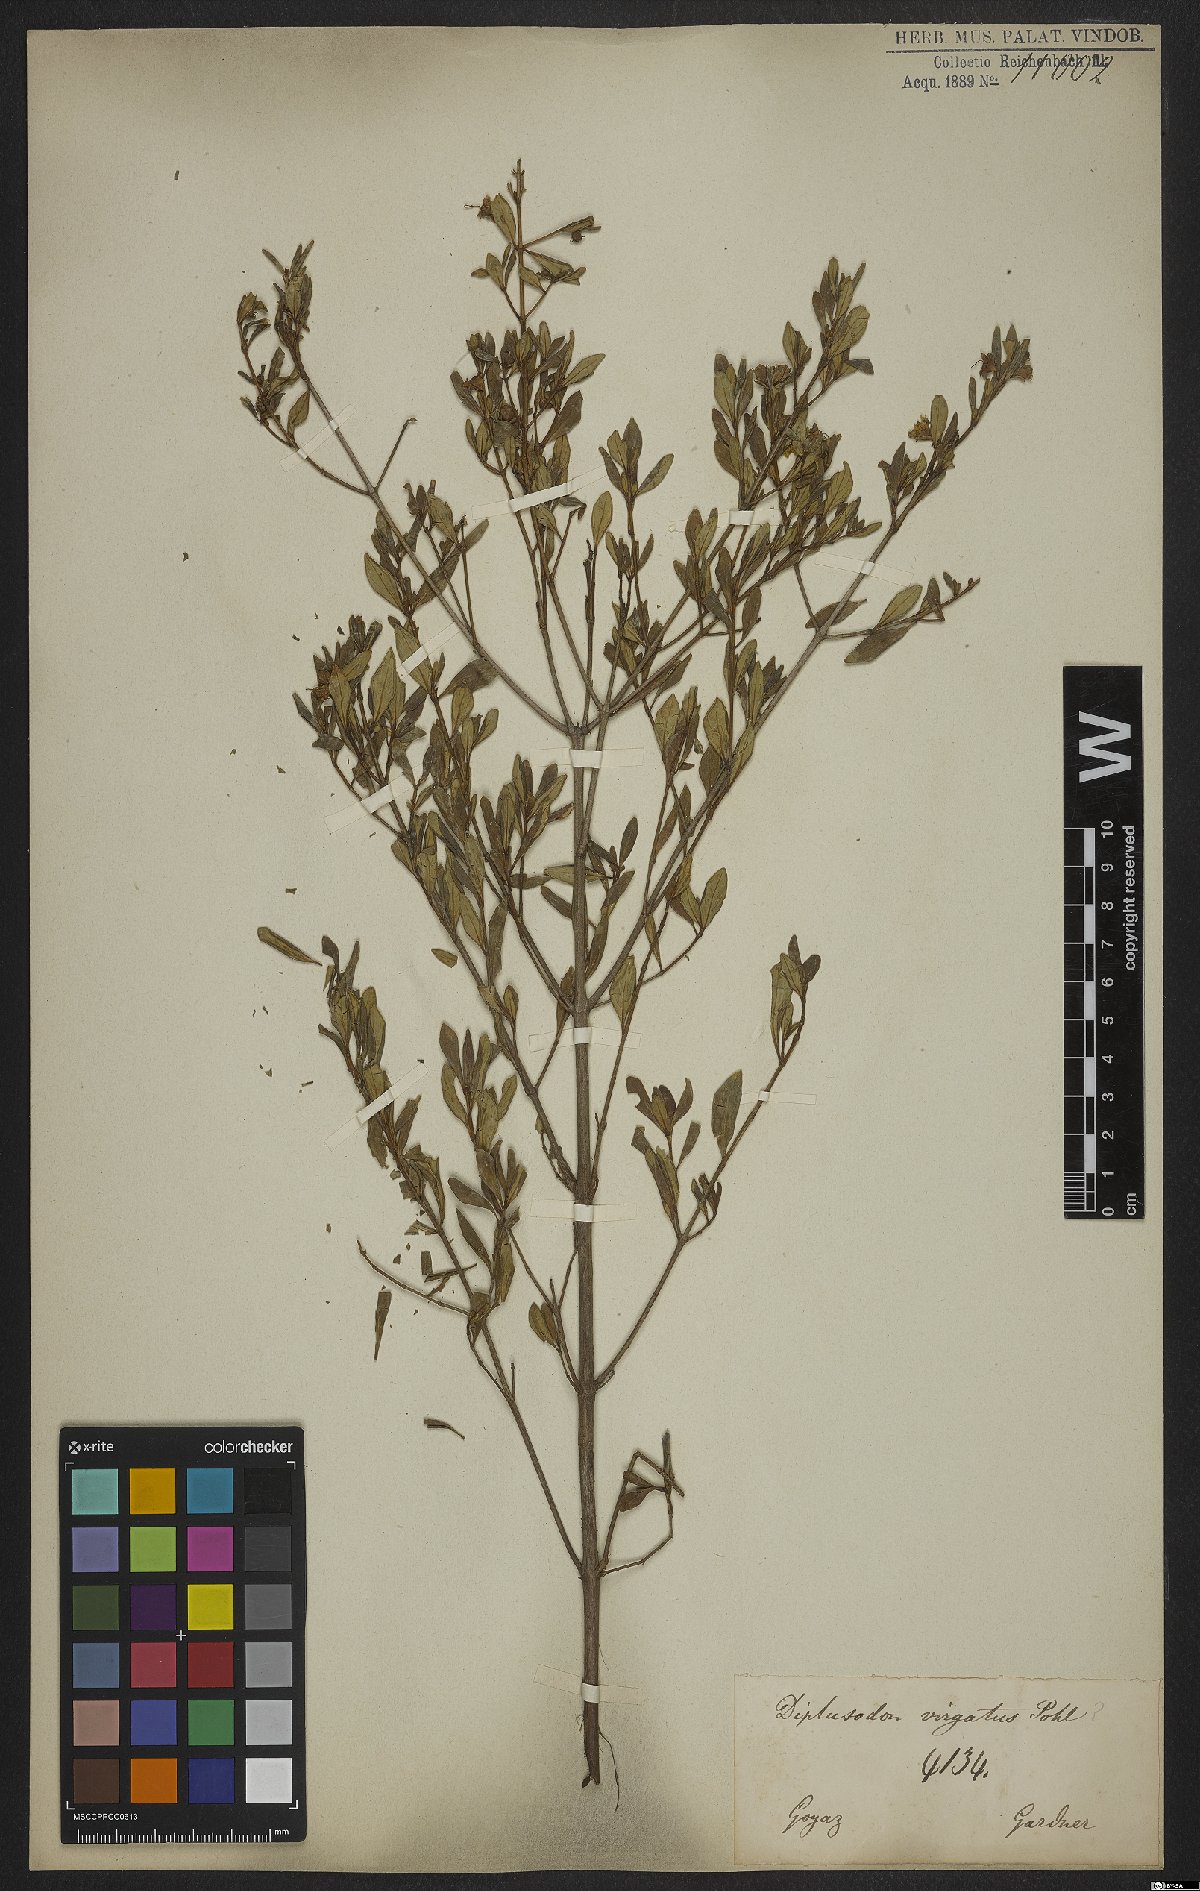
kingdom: Plantae
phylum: Tracheophyta
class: Magnoliopsida
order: Myrtales
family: Lythraceae
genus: Diplusodon
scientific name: Diplusodon virgatus
